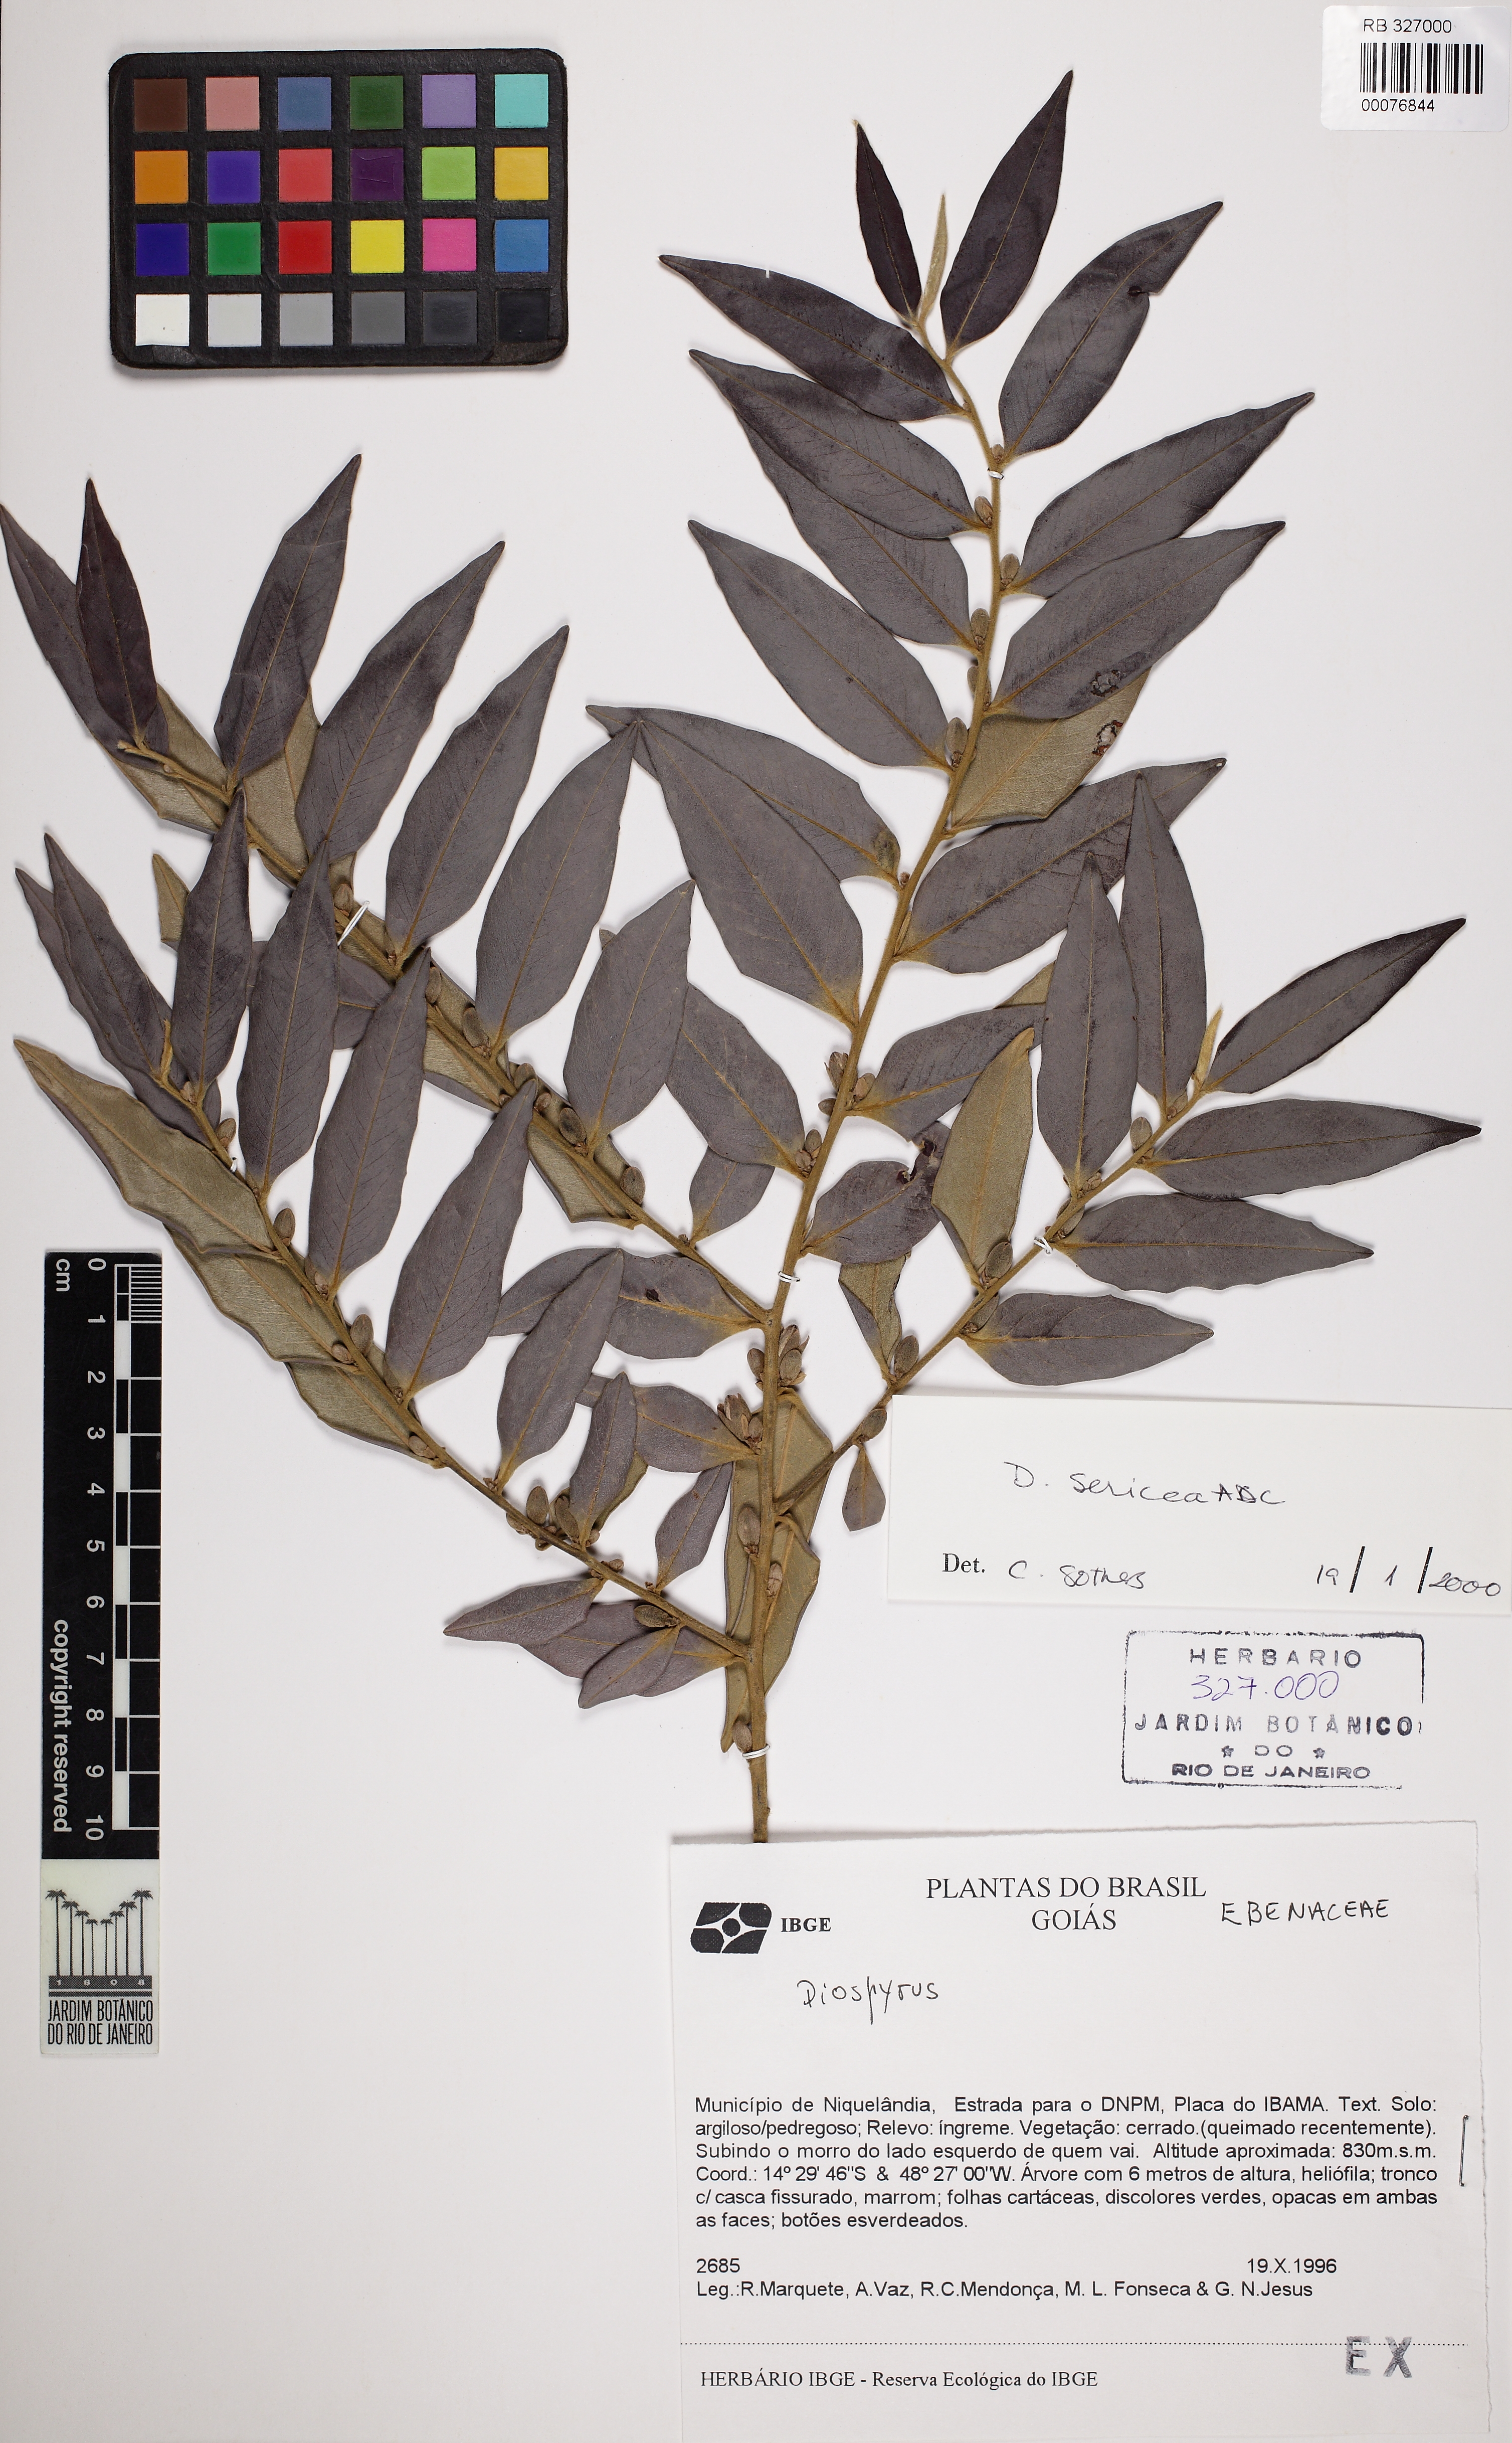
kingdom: Plantae
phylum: Tracheophyta
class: Magnoliopsida
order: Ericales
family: Ebenaceae
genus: Diospyros
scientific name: Diospyros sericea
